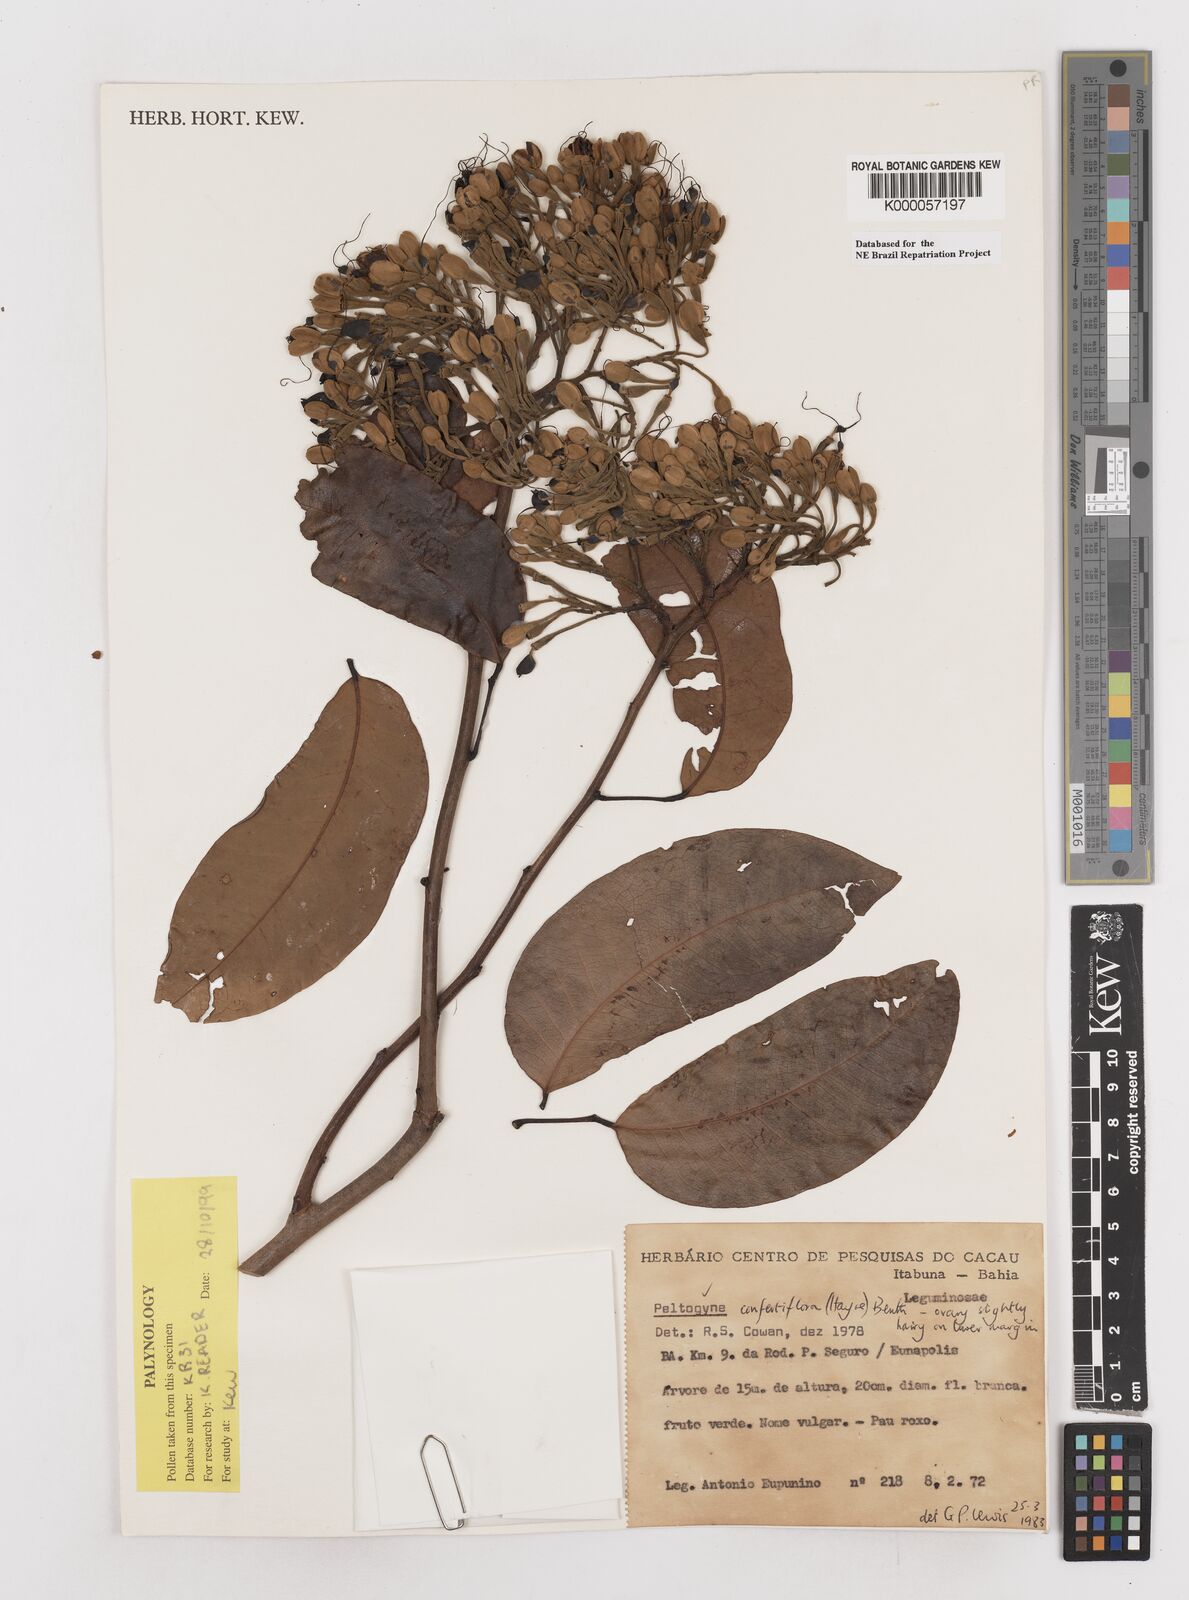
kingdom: Plantae
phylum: Tracheophyta
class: Magnoliopsida
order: Fabales
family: Fabaceae
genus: Peltogyne
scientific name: Peltogyne confertiflora
